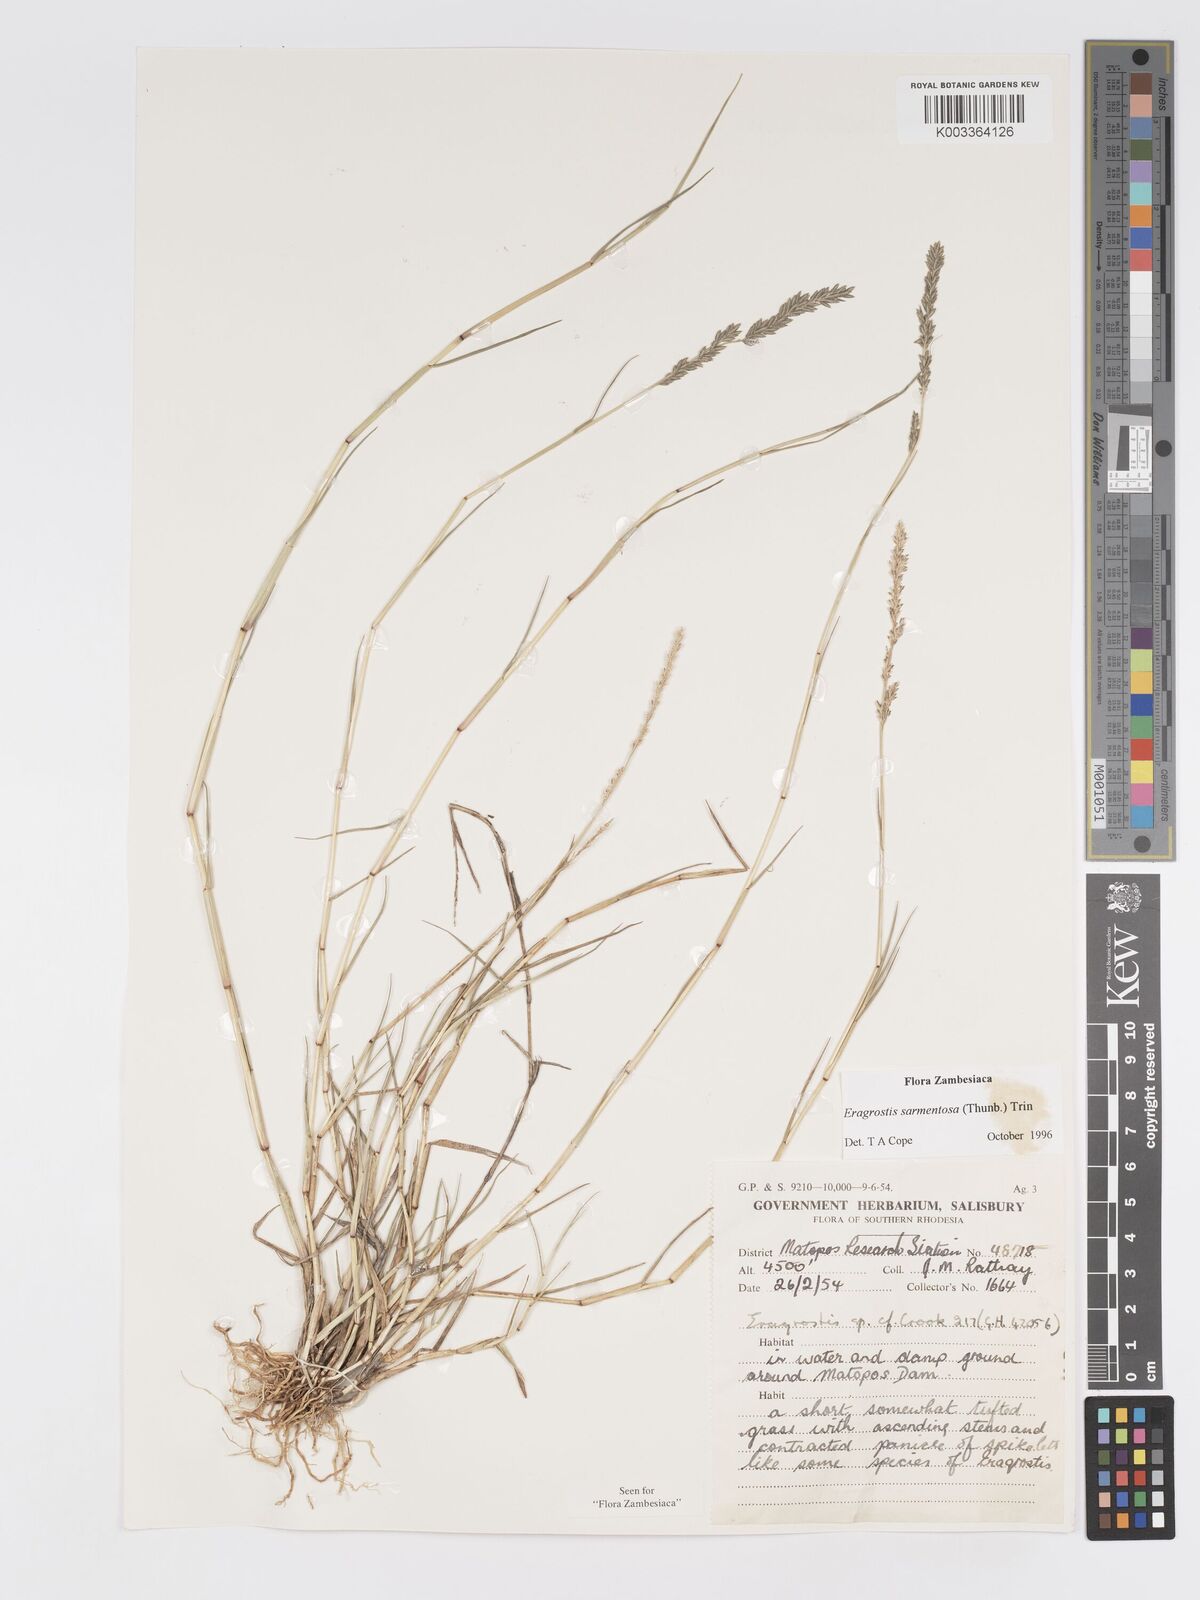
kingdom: Plantae
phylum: Tracheophyta
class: Liliopsida
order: Poales
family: Poaceae
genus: Eragrostis
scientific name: Eragrostis sarmentosa
